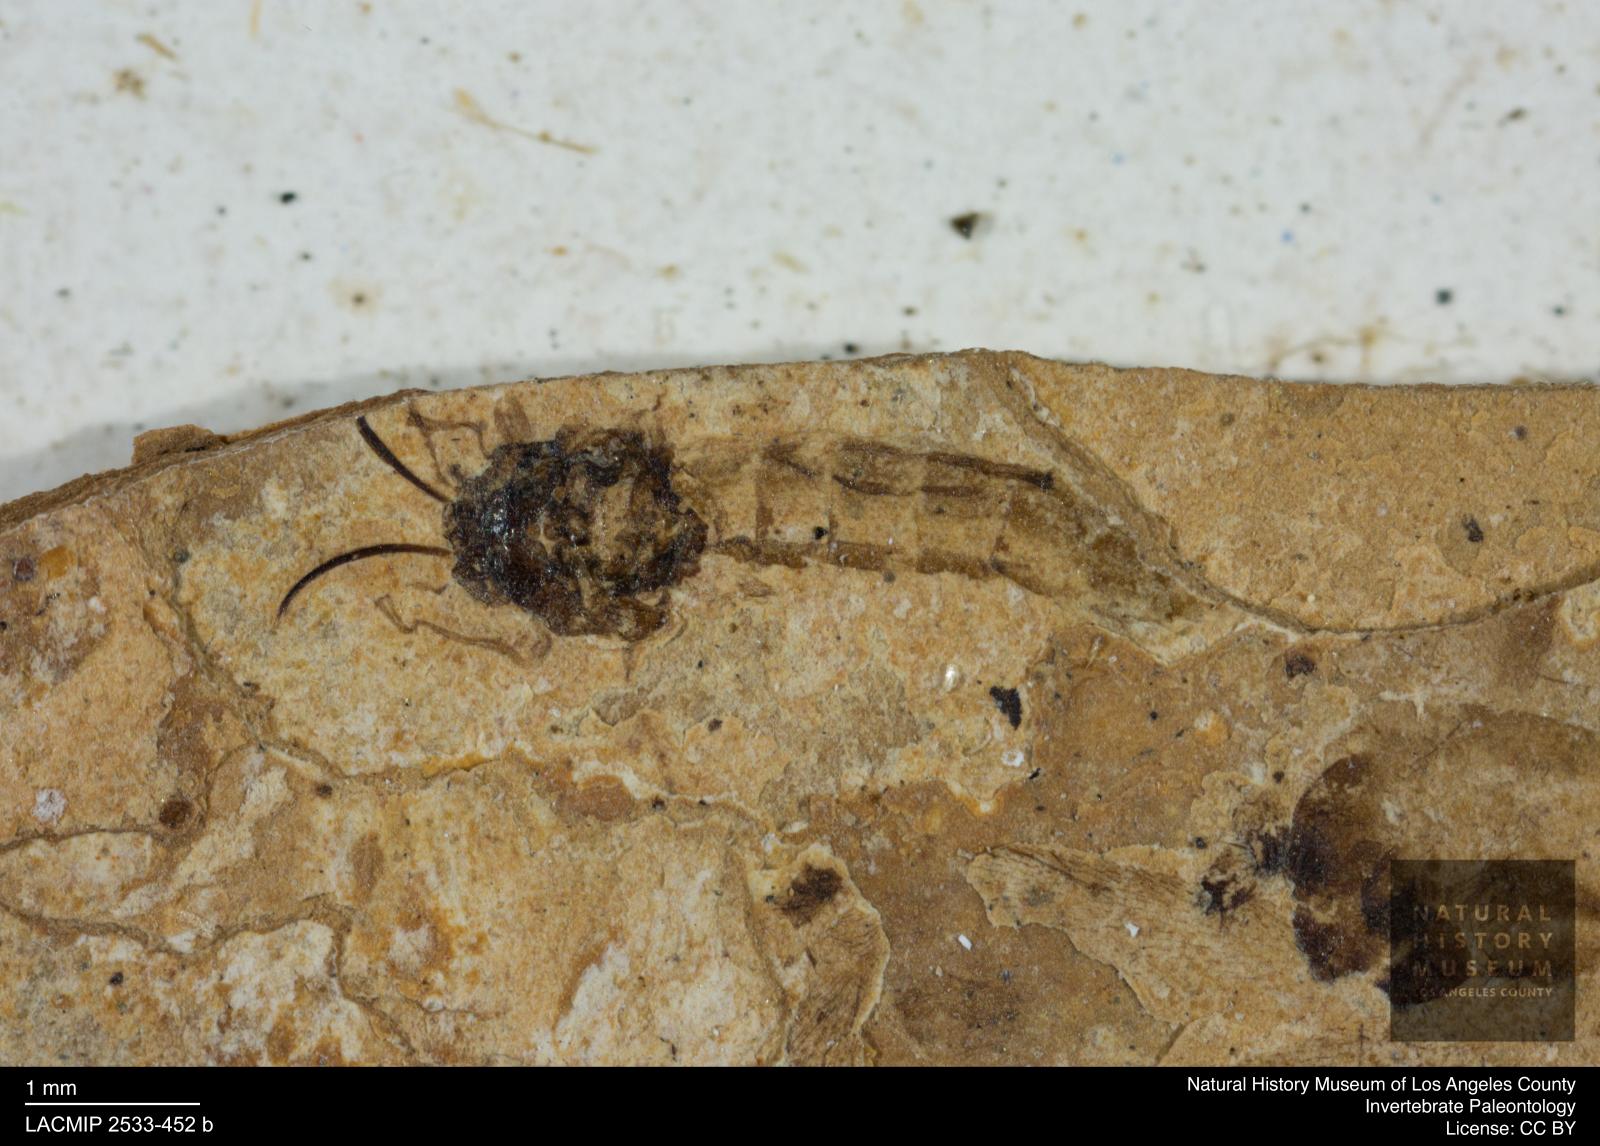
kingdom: Animalia
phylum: Arthropoda
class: Insecta
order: Diptera
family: Chironomidae
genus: Tanypus
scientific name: Tanypus thienemanni
